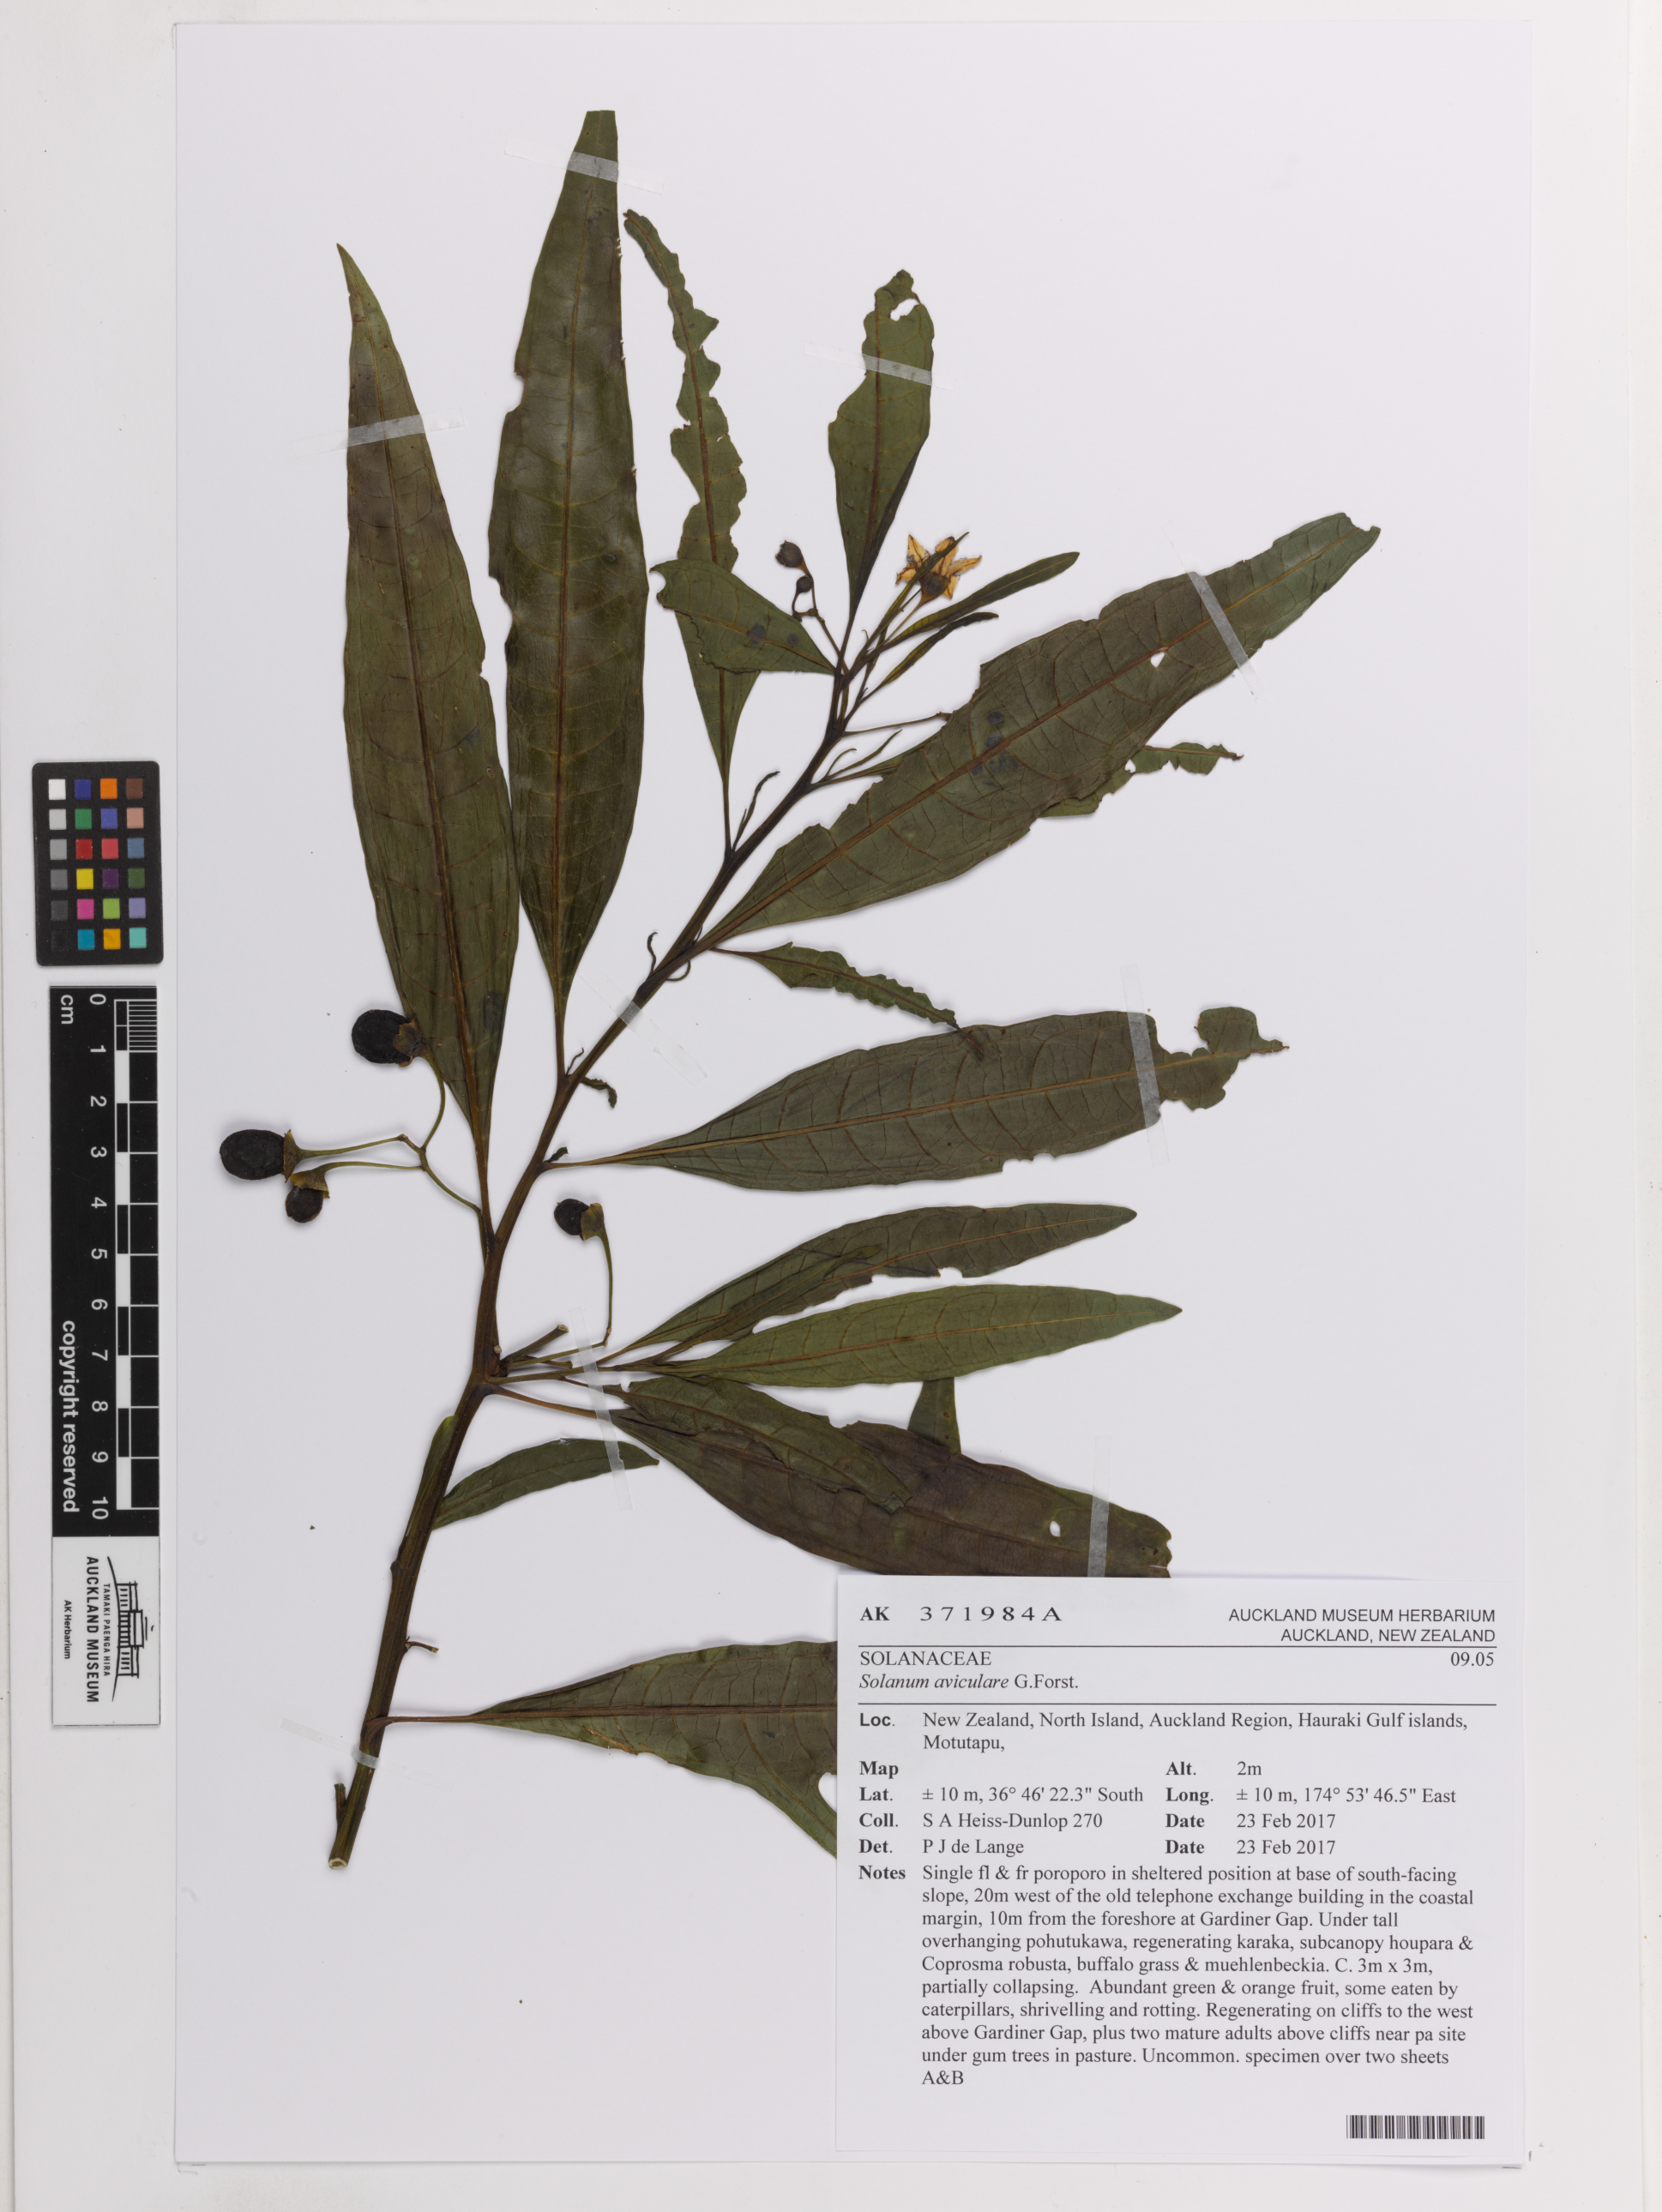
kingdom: Plantae
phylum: Tracheophyta
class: Magnoliopsida
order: Solanales
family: Solanaceae
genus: Solanum
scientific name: Solanum aviculare
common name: New zealand nightshade
